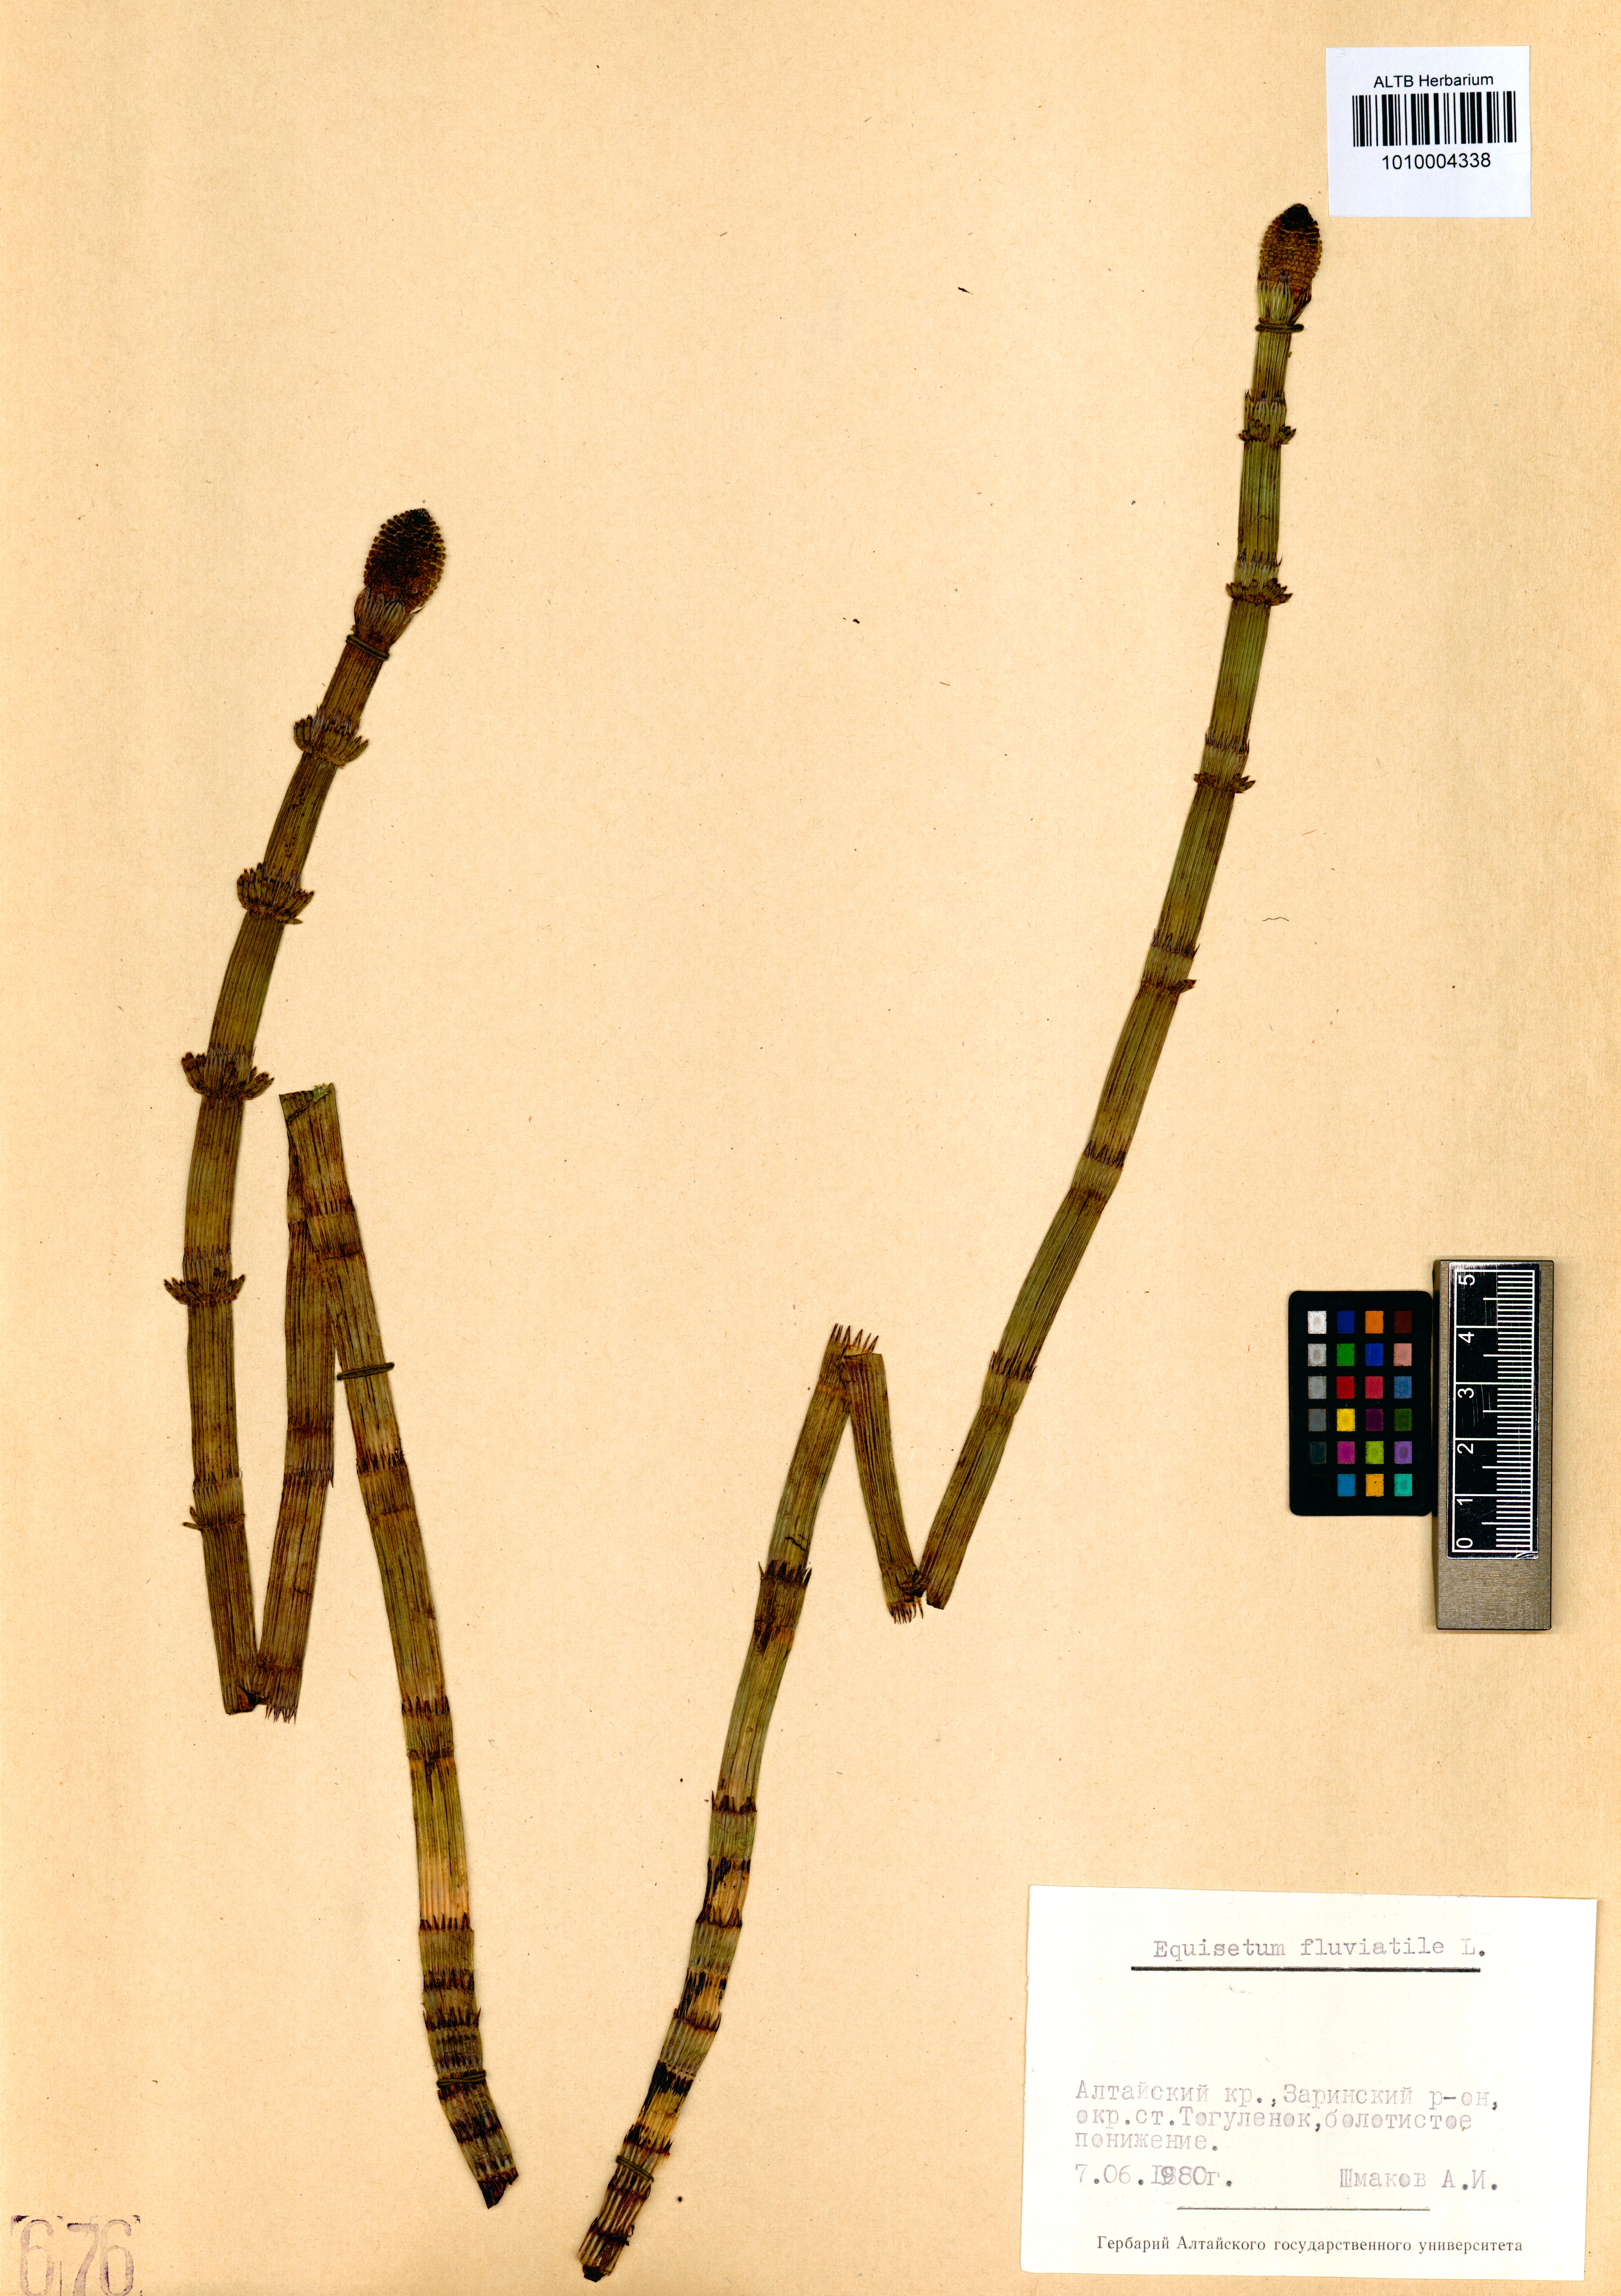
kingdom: Plantae
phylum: Tracheophyta
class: Polypodiopsida
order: Equisetales
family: Equisetaceae
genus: Equisetum
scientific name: Equisetum fluviatile
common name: Water horsetail
